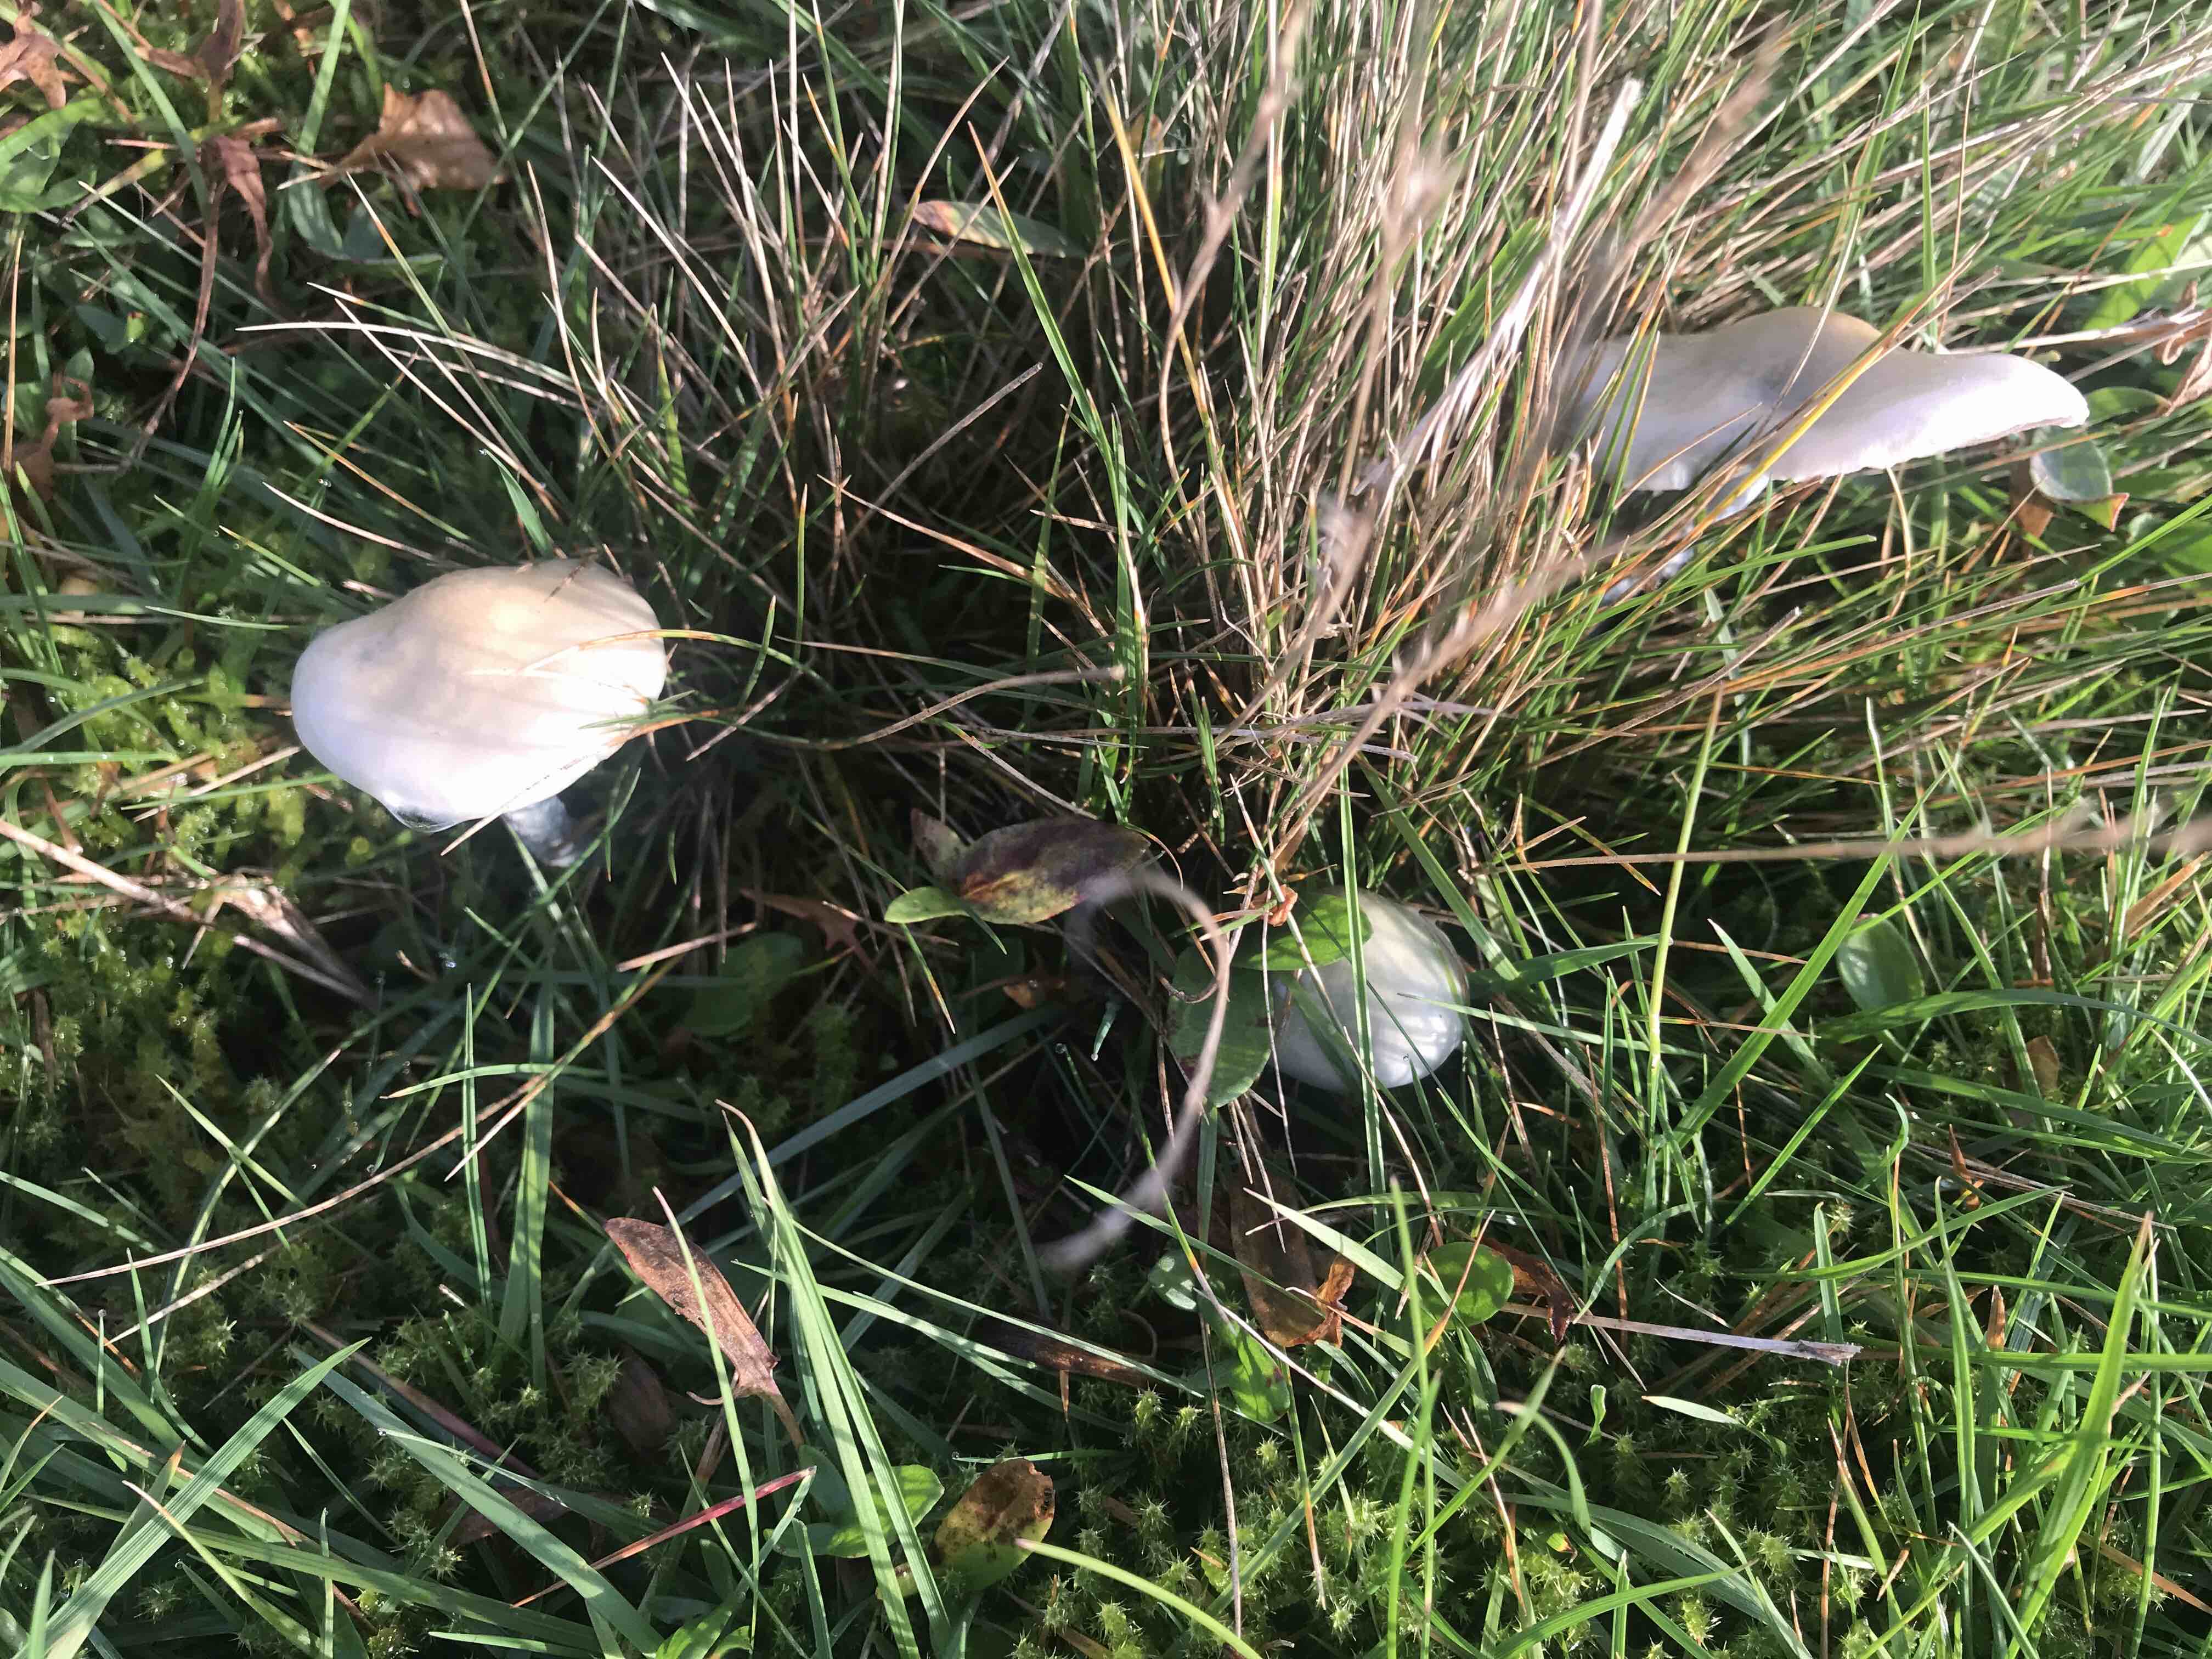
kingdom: Fungi
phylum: Basidiomycota
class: Agaricomycetes
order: Agaricales
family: Strophariaceae
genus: Stropharia
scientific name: Stropharia pseudocyanea
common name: blegblå bredblad
